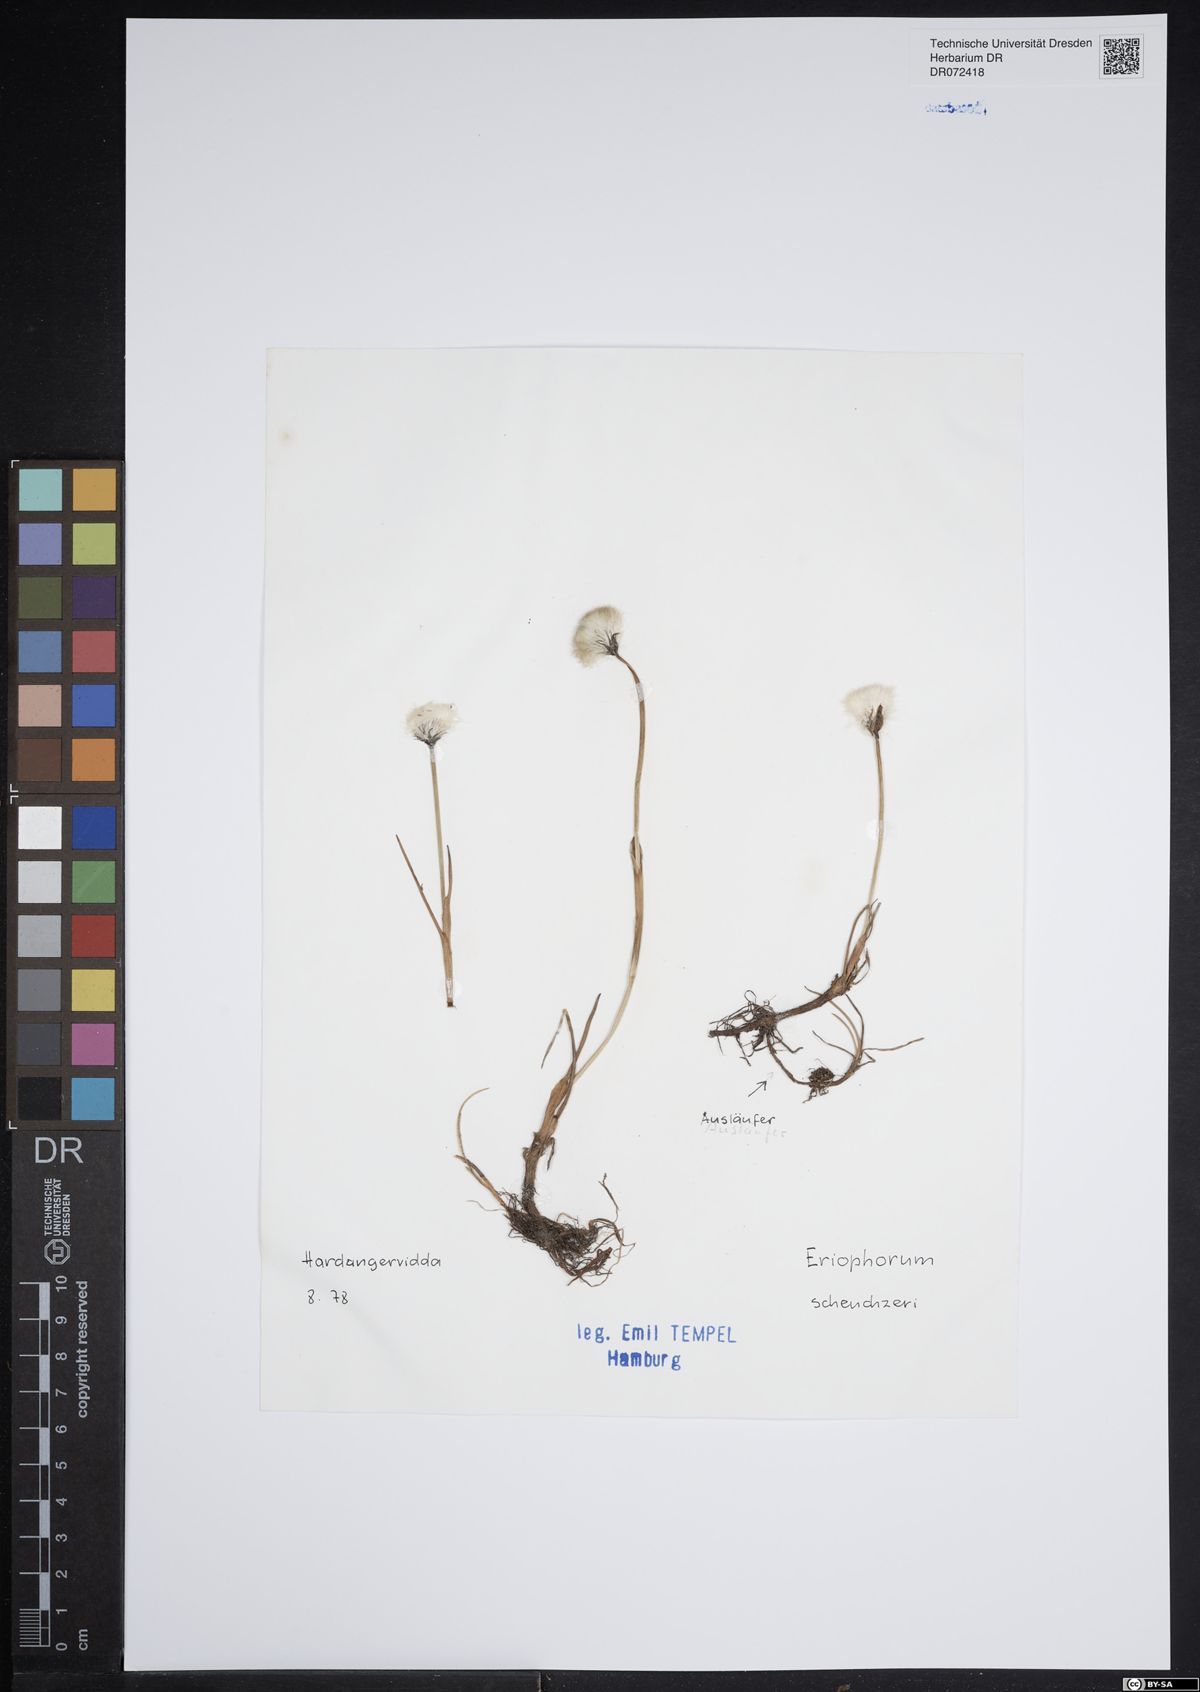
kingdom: Plantae
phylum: Tracheophyta
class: Liliopsida
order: Poales
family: Cyperaceae
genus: Eriophorum
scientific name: Eriophorum scheuchzeri
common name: Scheuchzer's cottongrass
